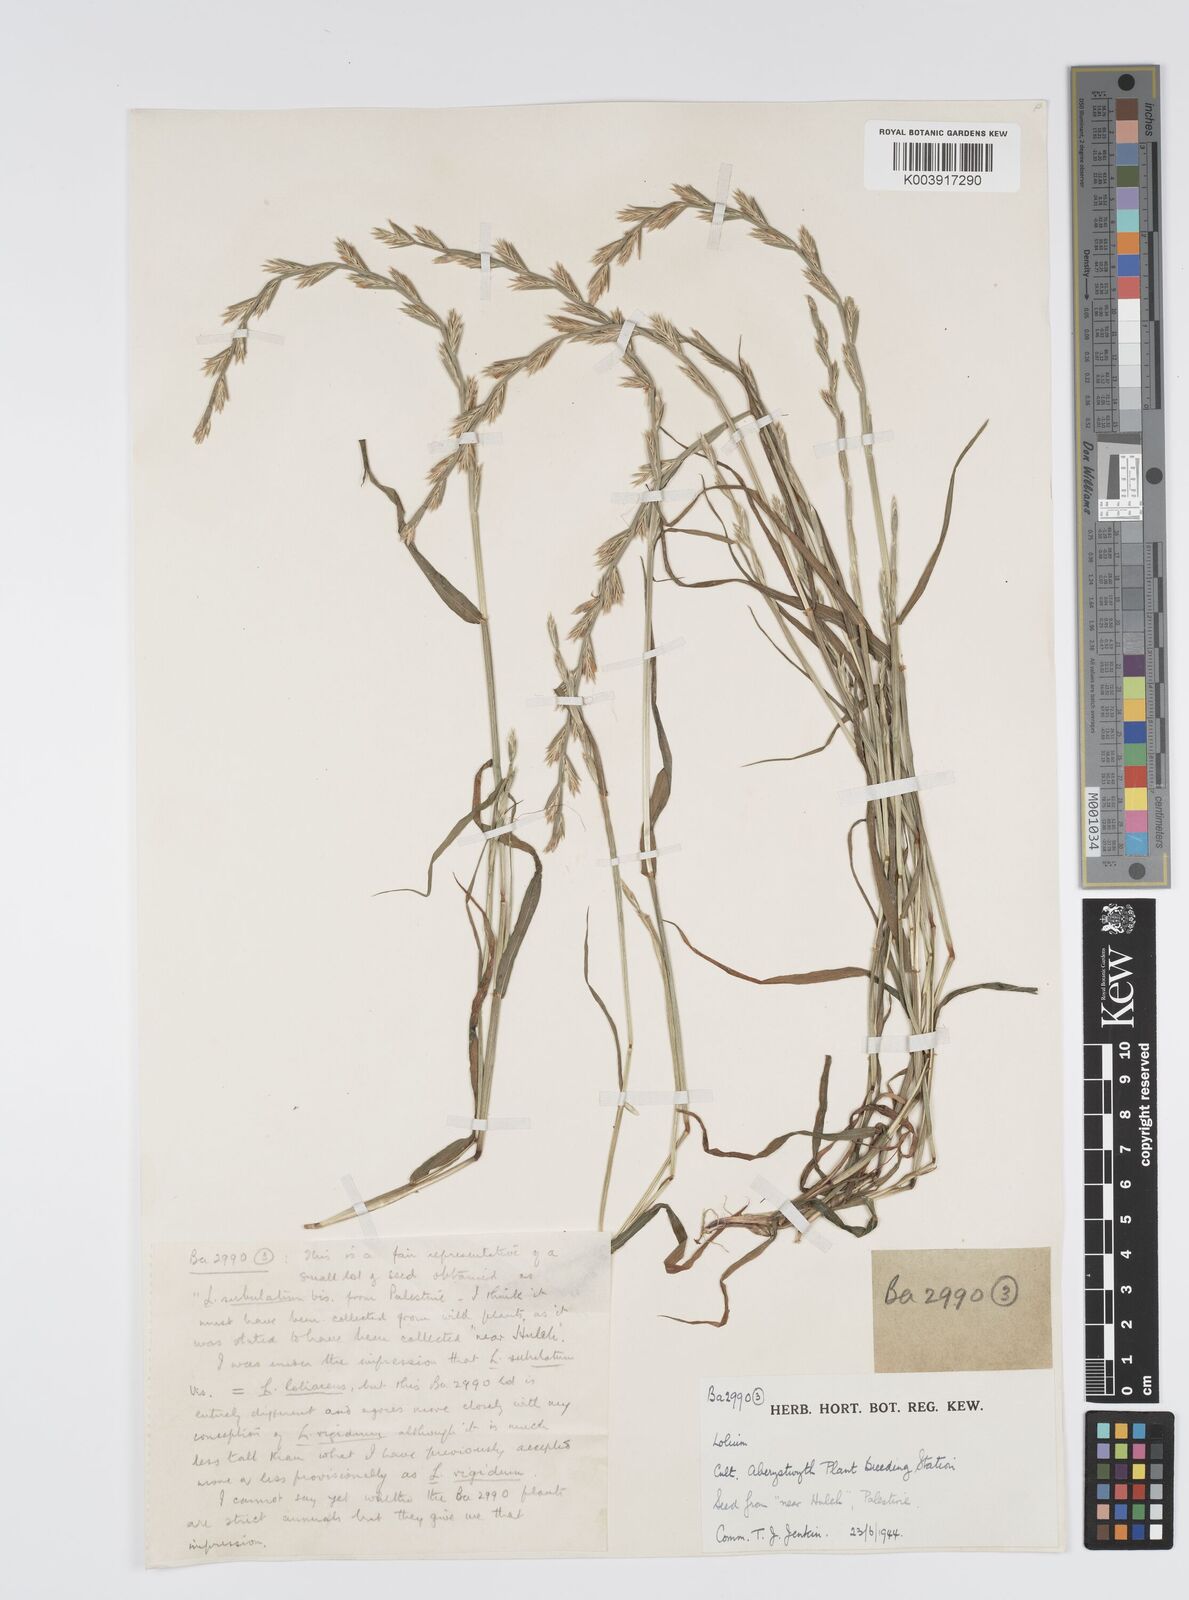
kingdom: Plantae
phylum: Tracheophyta
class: Liliopsida
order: Poales
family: Poaceae
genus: Lolium
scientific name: Lolium rigidum
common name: Wimmera ryegrass
